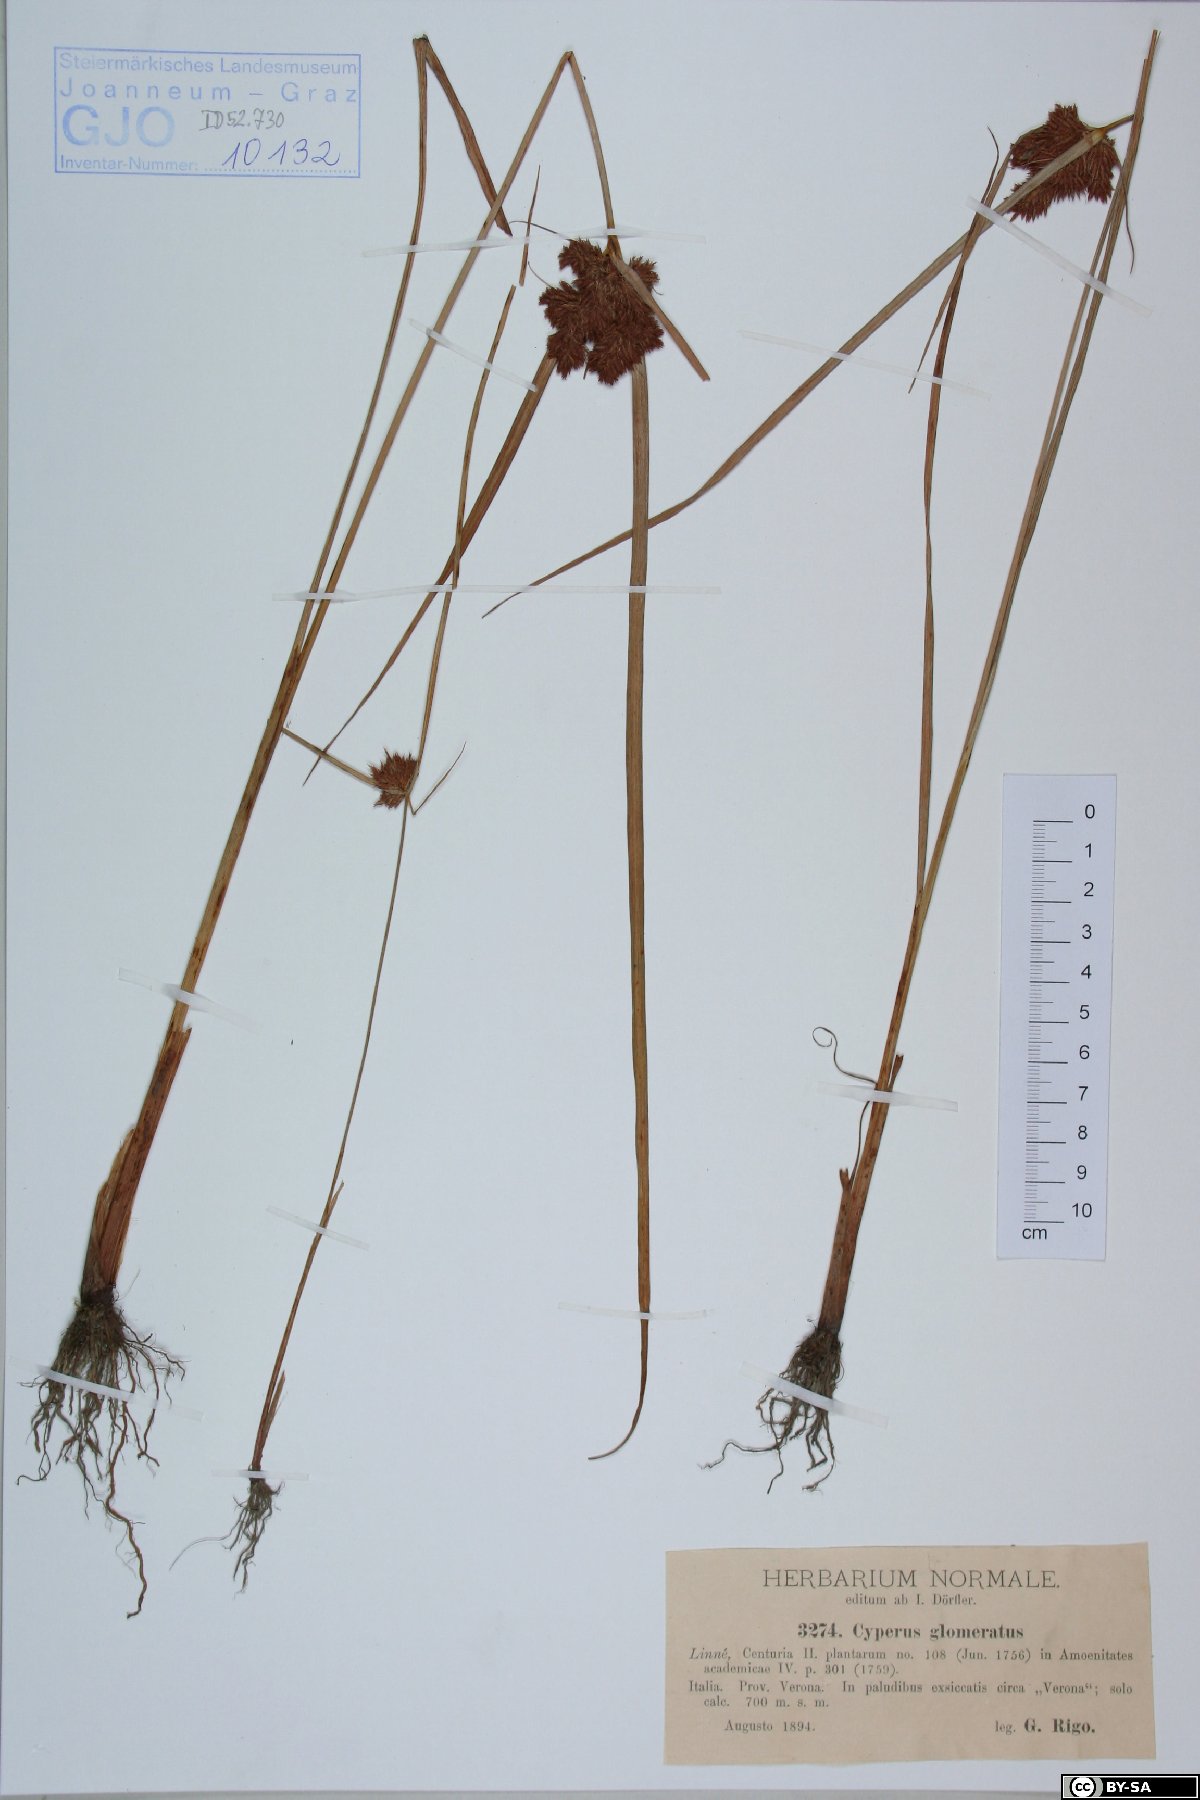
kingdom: Plantae
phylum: Tracheophyta
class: Liliopsida
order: Poales
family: Cyperaceae
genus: Cyperus
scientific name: Cyperus glomeratus
